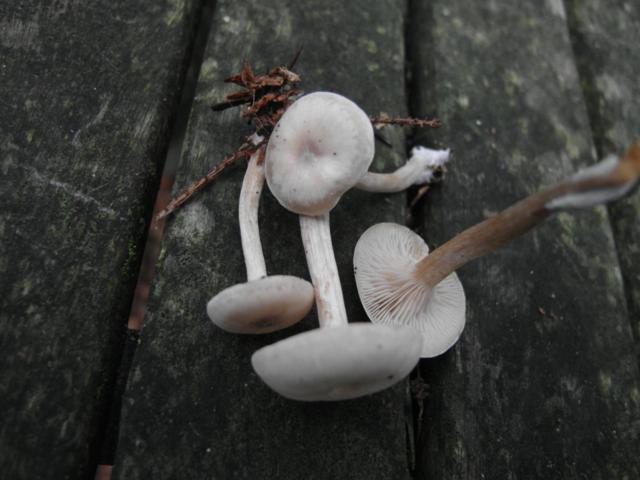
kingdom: Fungi
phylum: Basidiomycota
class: Agaricomycetes
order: Agaricales
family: Tricholomataceae
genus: Clitocybe
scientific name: Clitocybe metachroa
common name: grå tragthat
